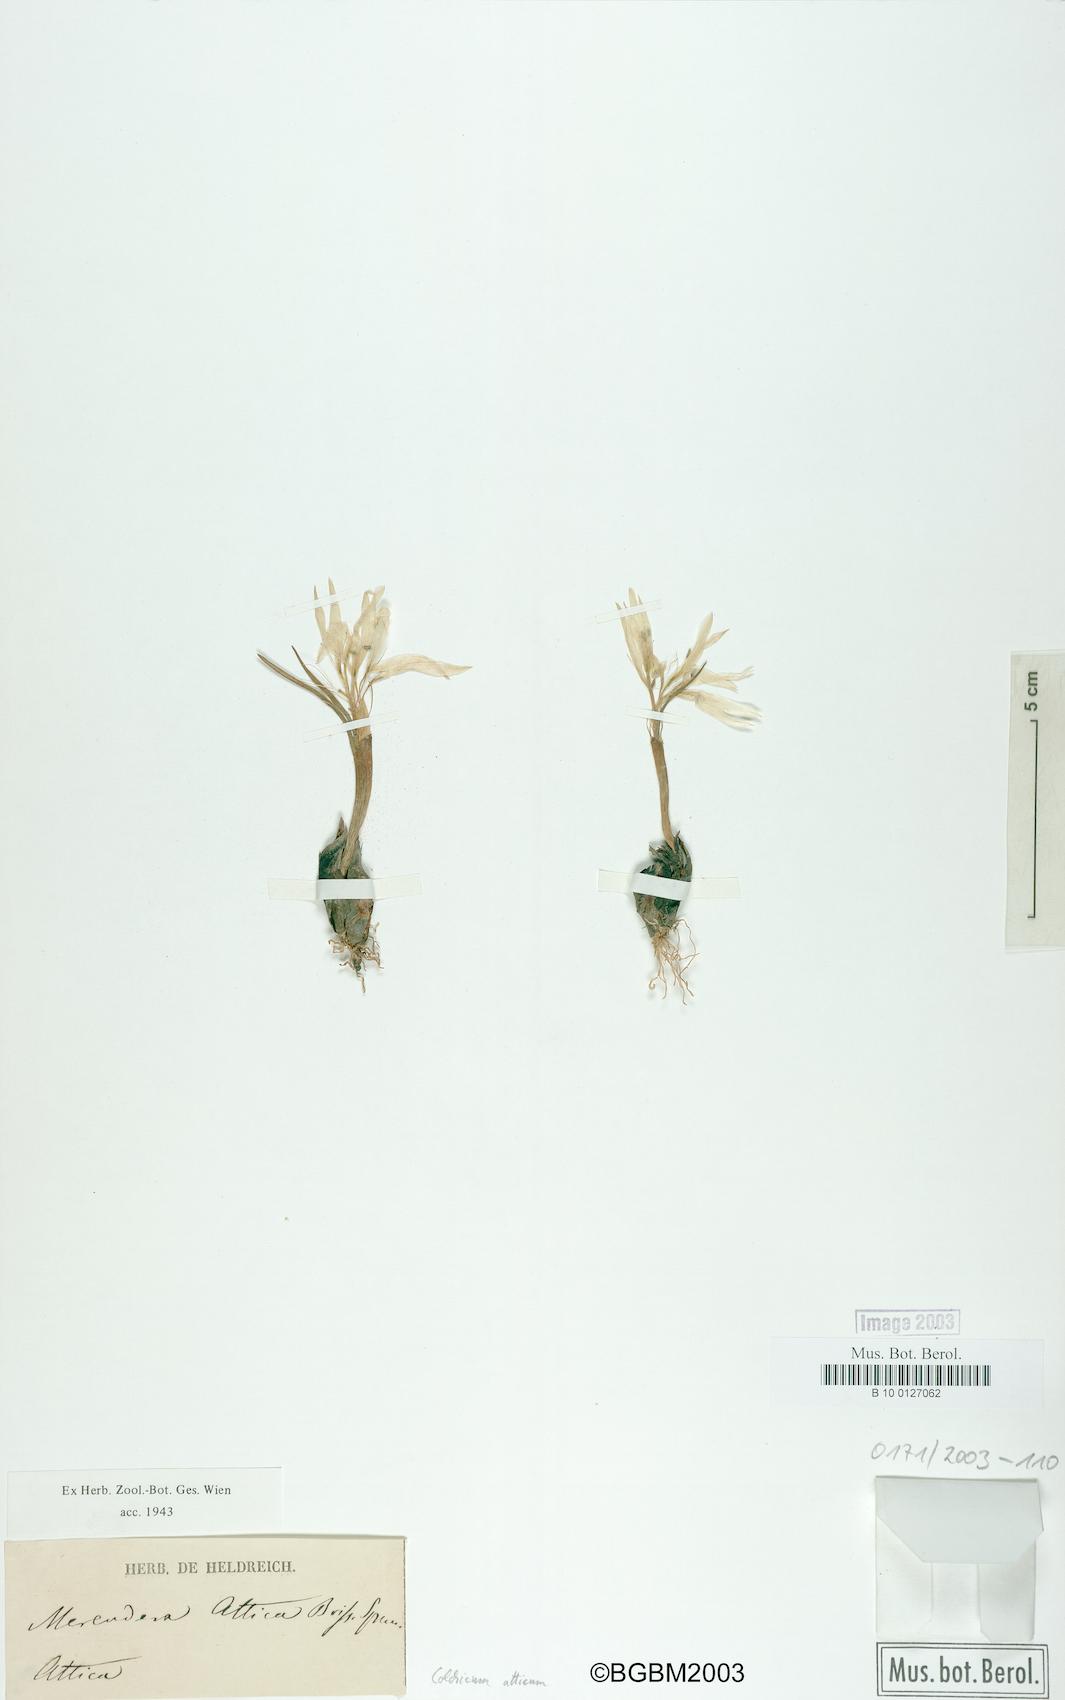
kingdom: Plantae
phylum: Tracheophyta
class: Liliopsida
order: Liliales
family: Colchicaceae
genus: Colchicum
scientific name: Colchicum atticum
